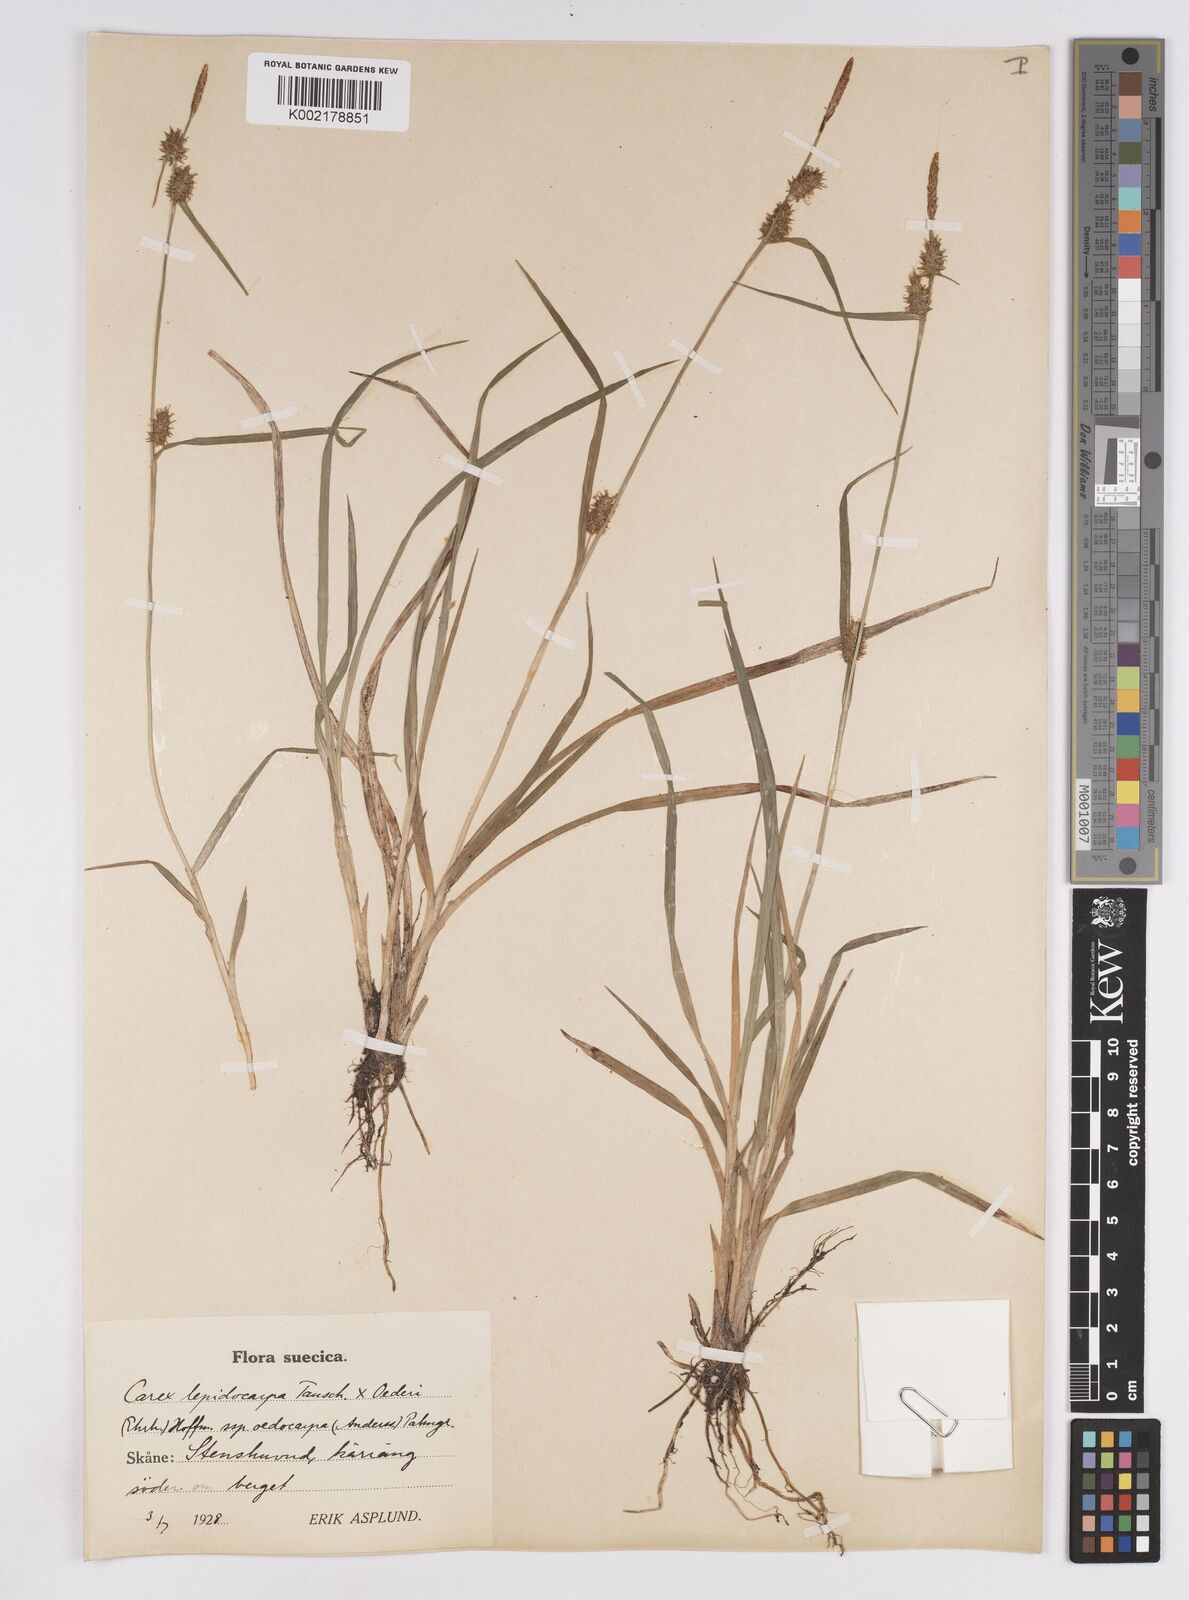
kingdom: Plantae
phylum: Tracheophyta
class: Liliopsida
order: Poales
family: Cyperaceae
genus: Carex
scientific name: Carex lepidocarpa
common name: Long-stalked yellow-sedge
